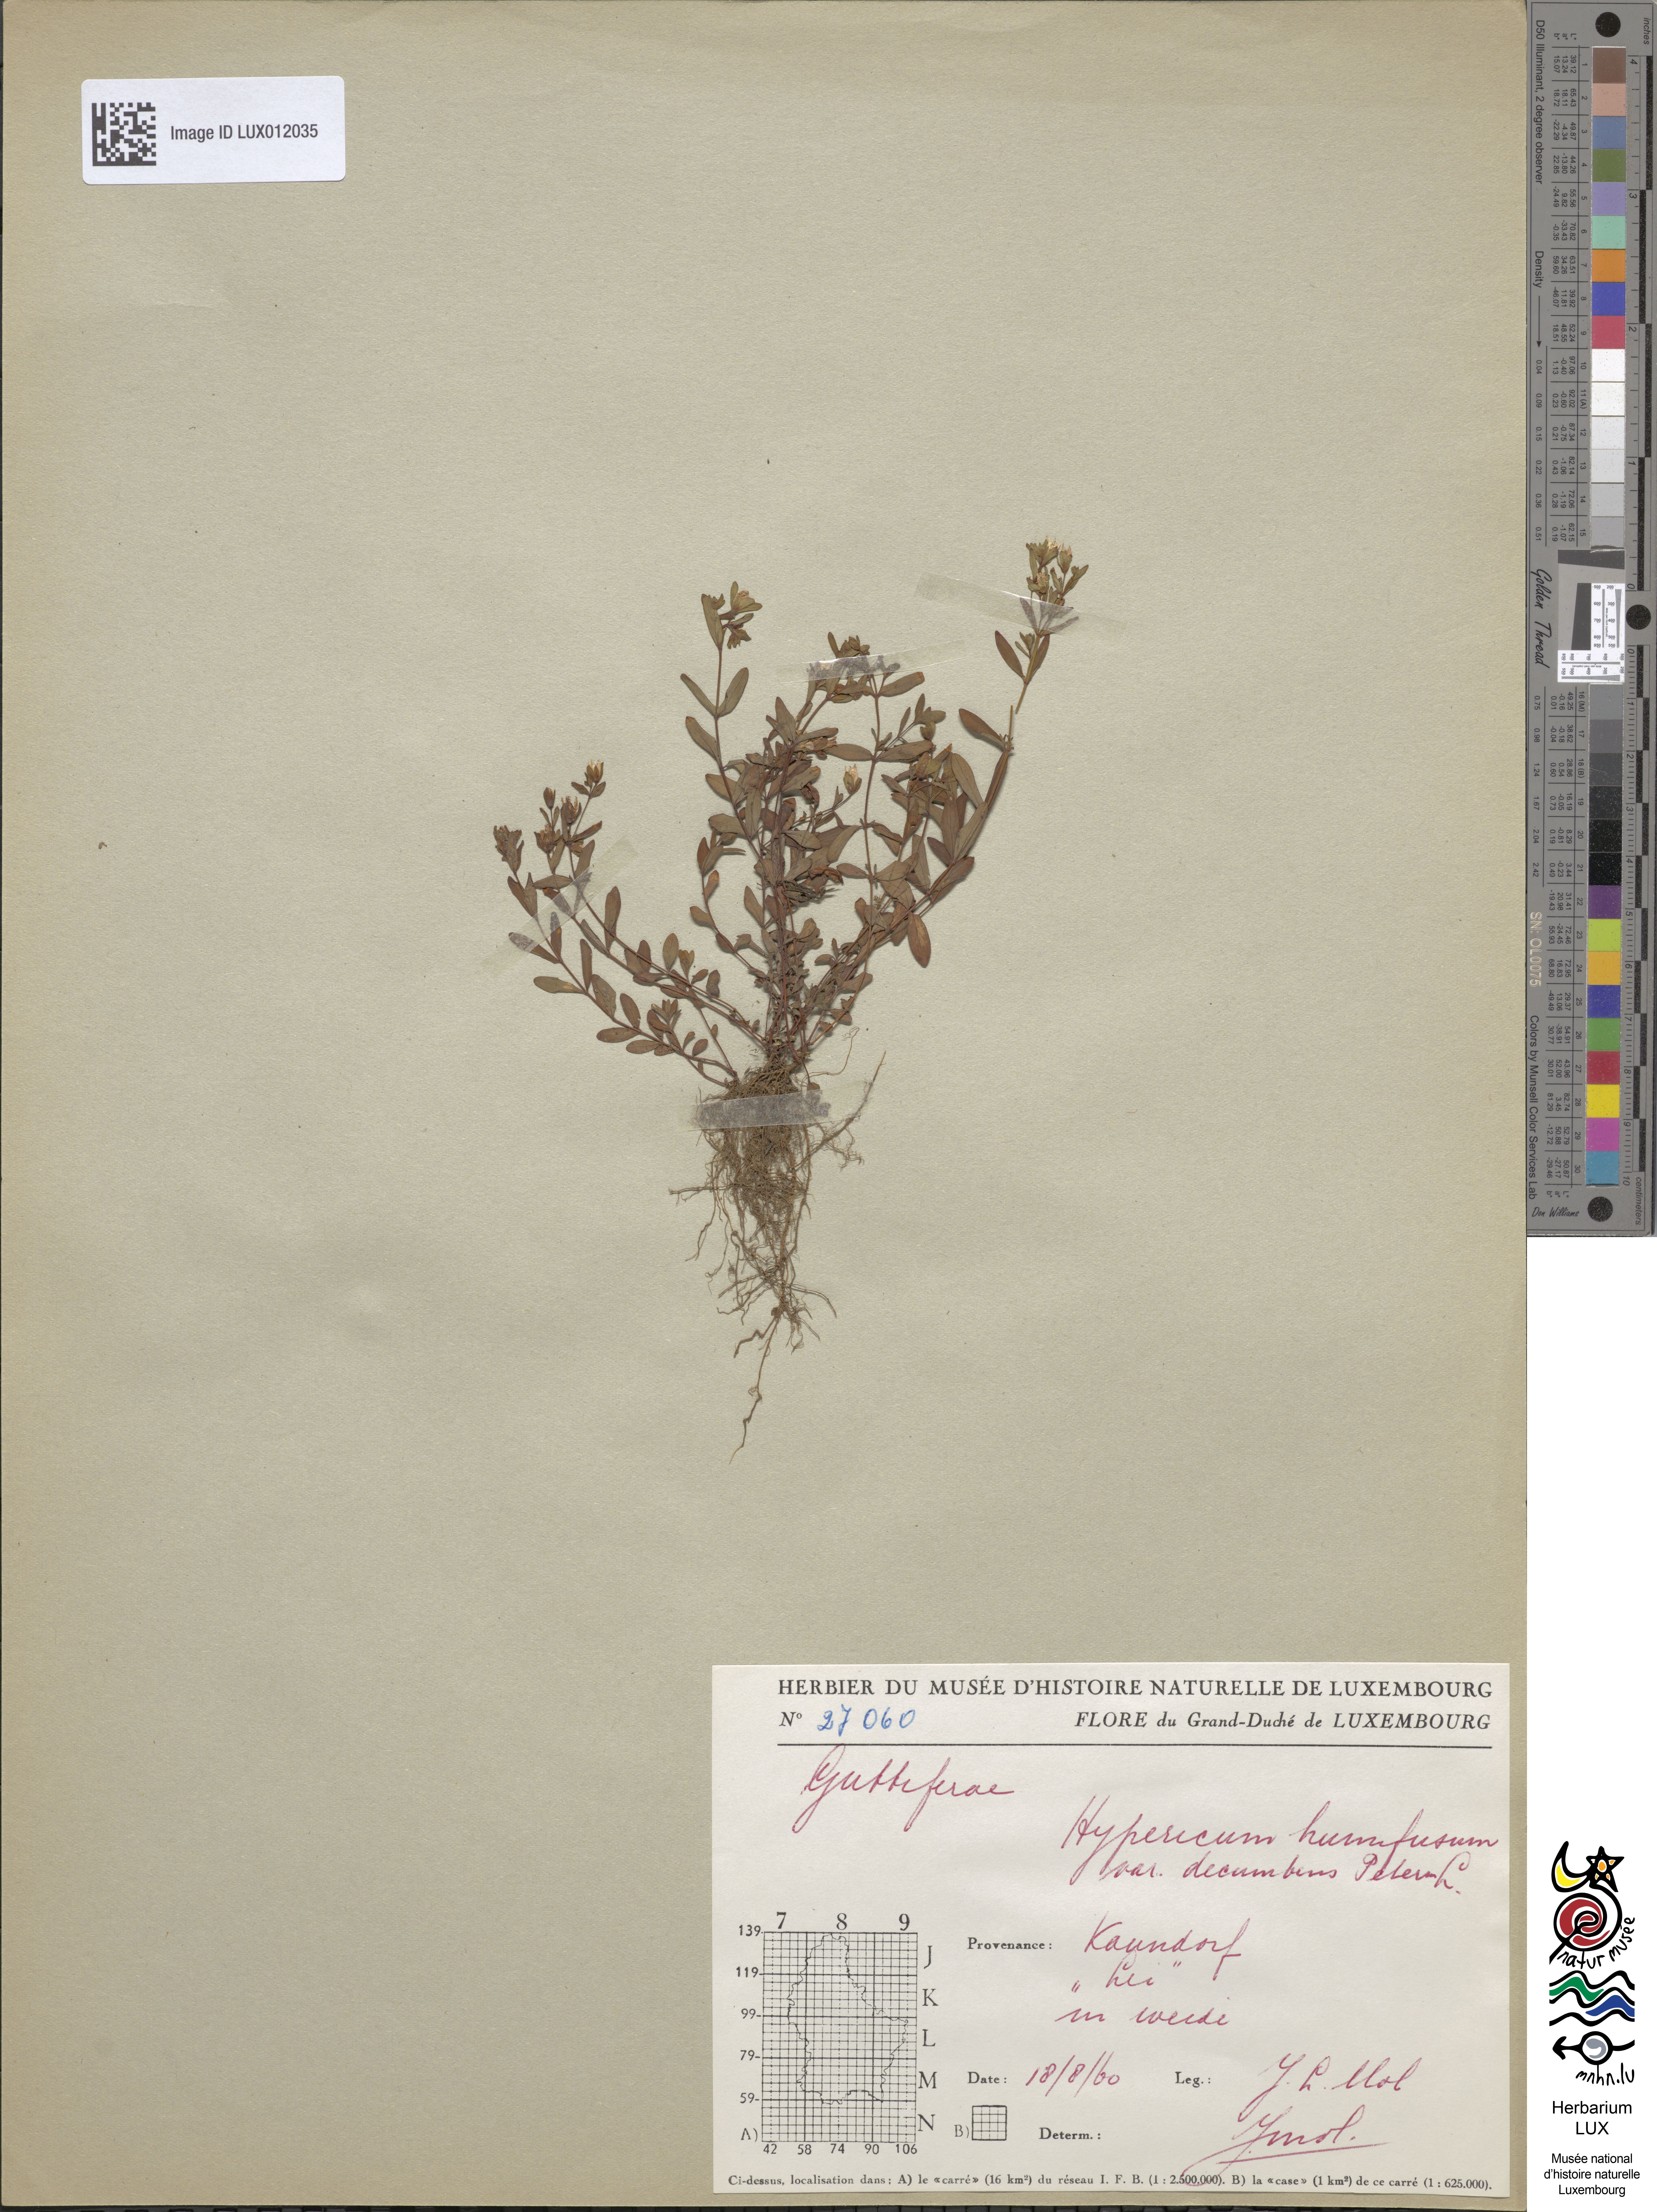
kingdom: Plantae
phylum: Tracheophyta
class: Magnoliopsida
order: Malpighiales
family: Hypericaceae
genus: Hypericum
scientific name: Hypericum humifusum
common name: Trailing st. john's-wort
